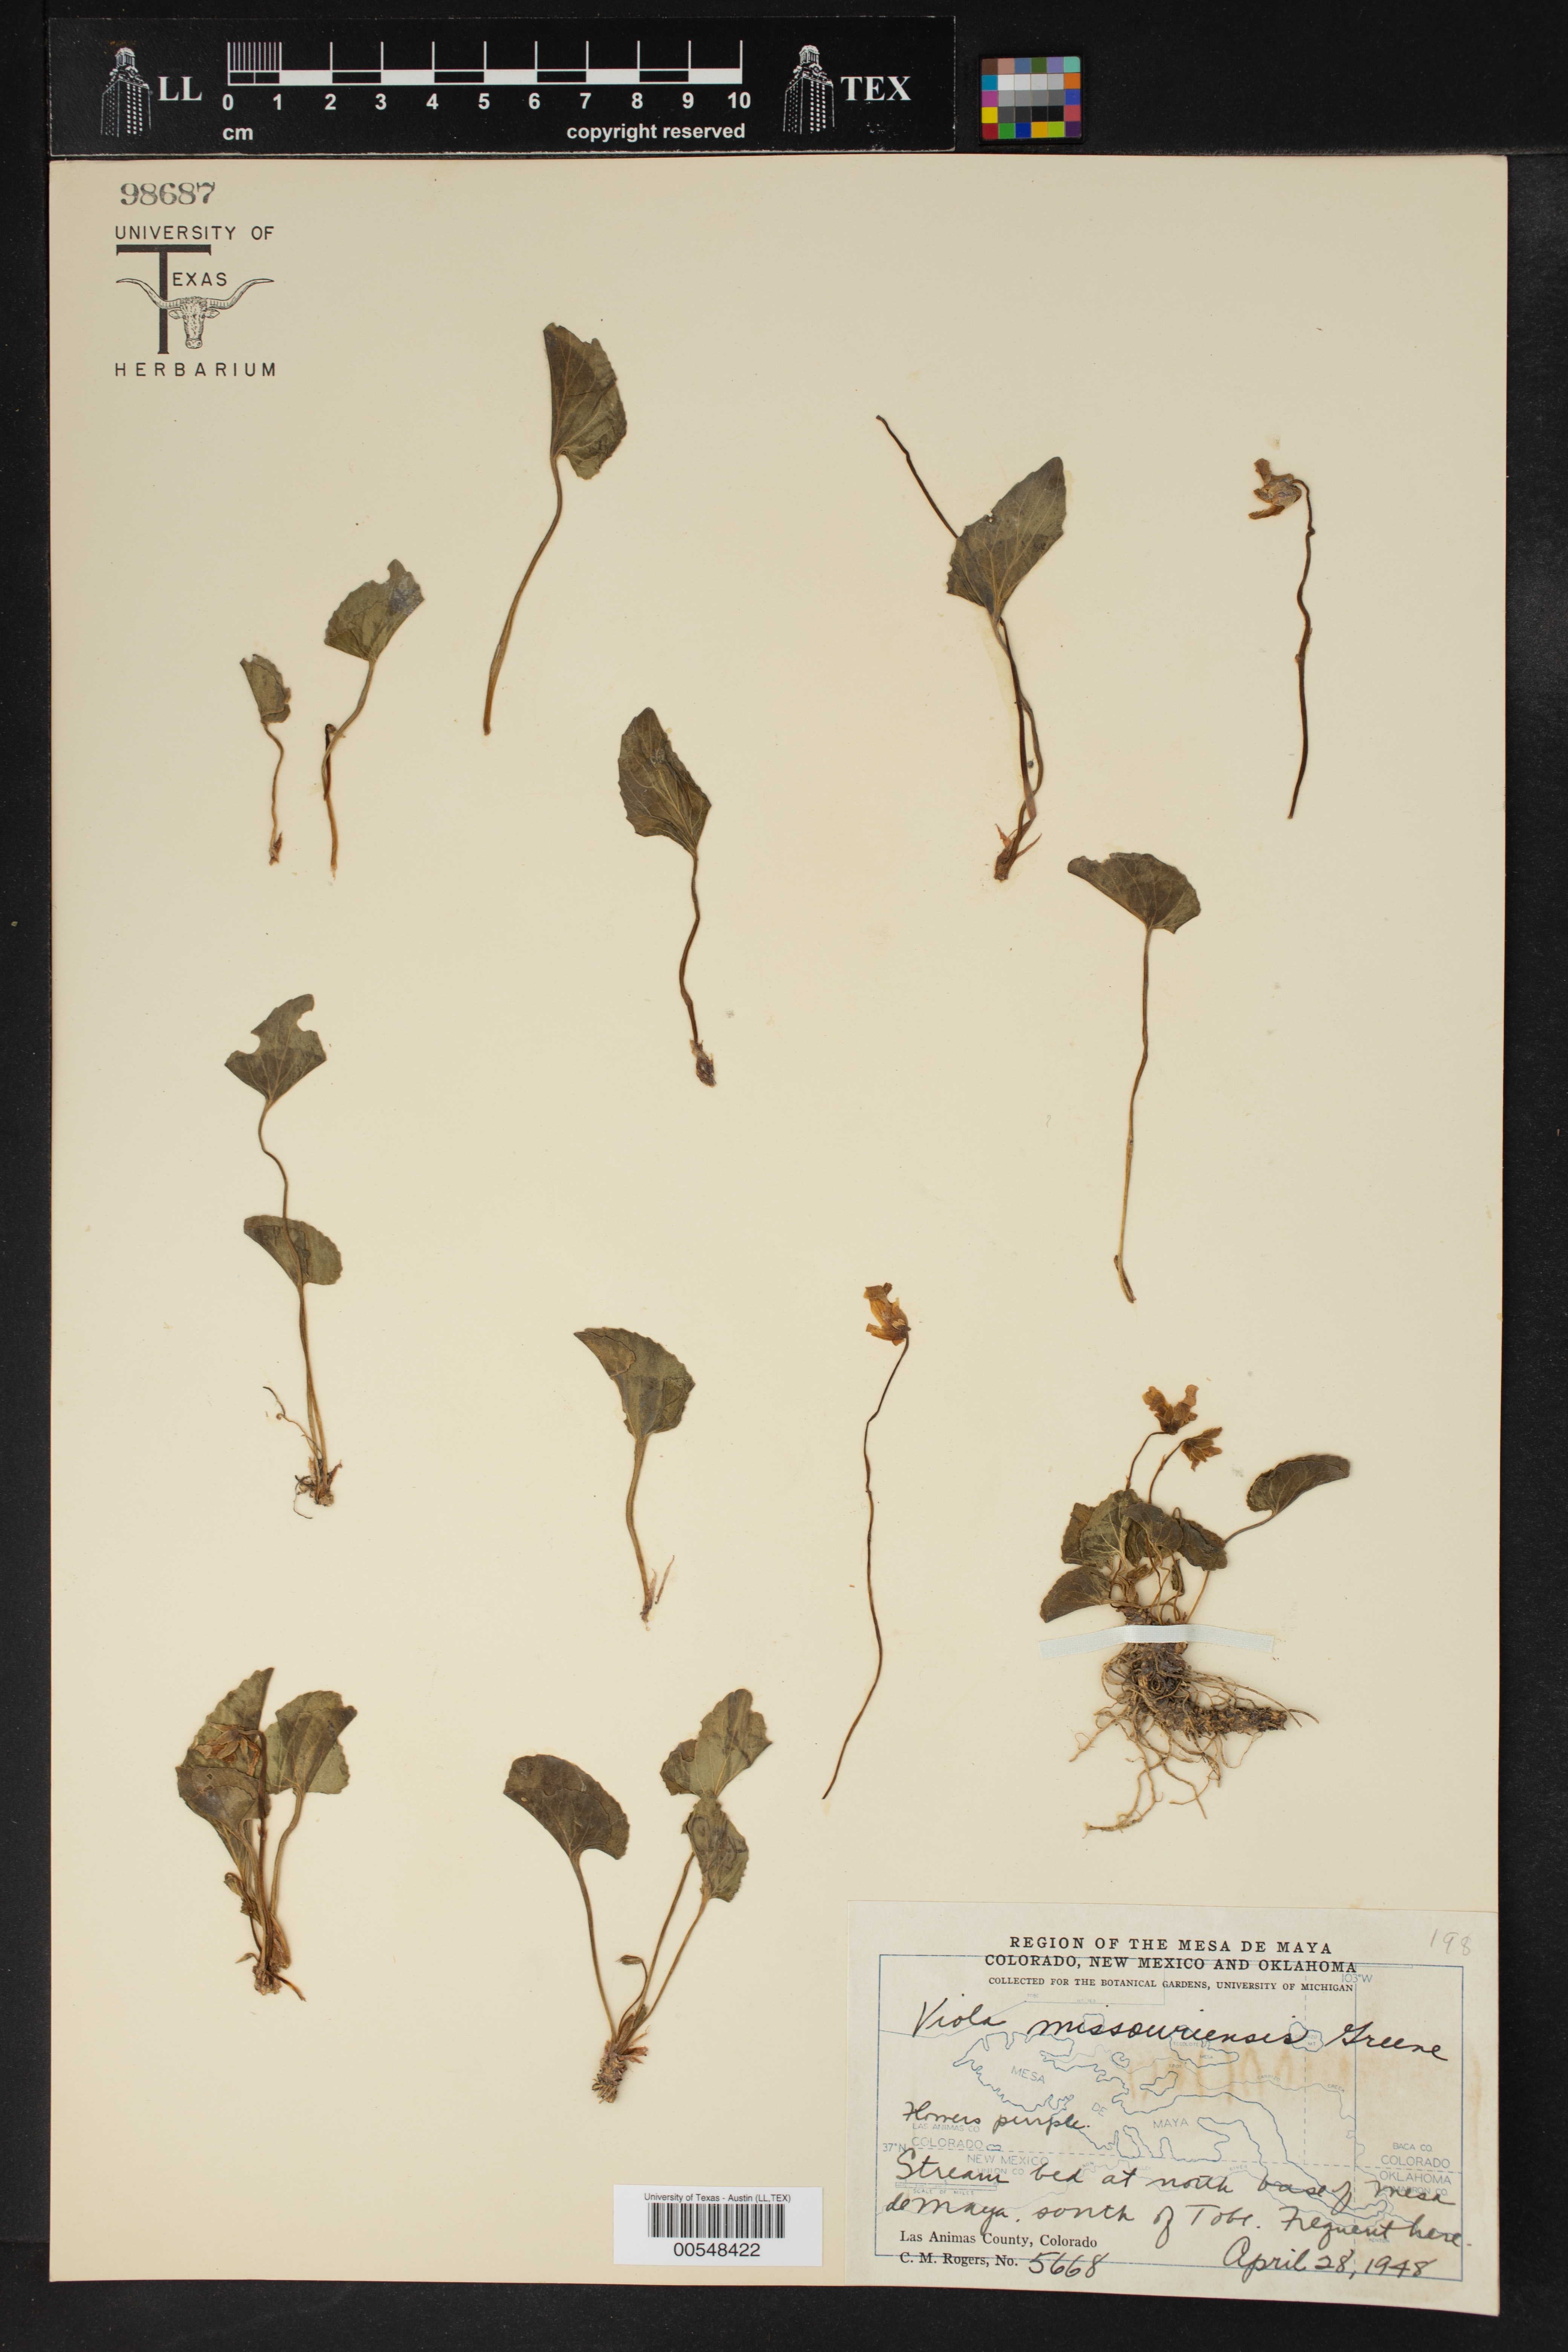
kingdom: Plantae
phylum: Tracheophyta
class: Magnoliopsida
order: Malpighiales
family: Violaceae
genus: Viola
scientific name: Viola missouriensis
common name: Missouri violet
